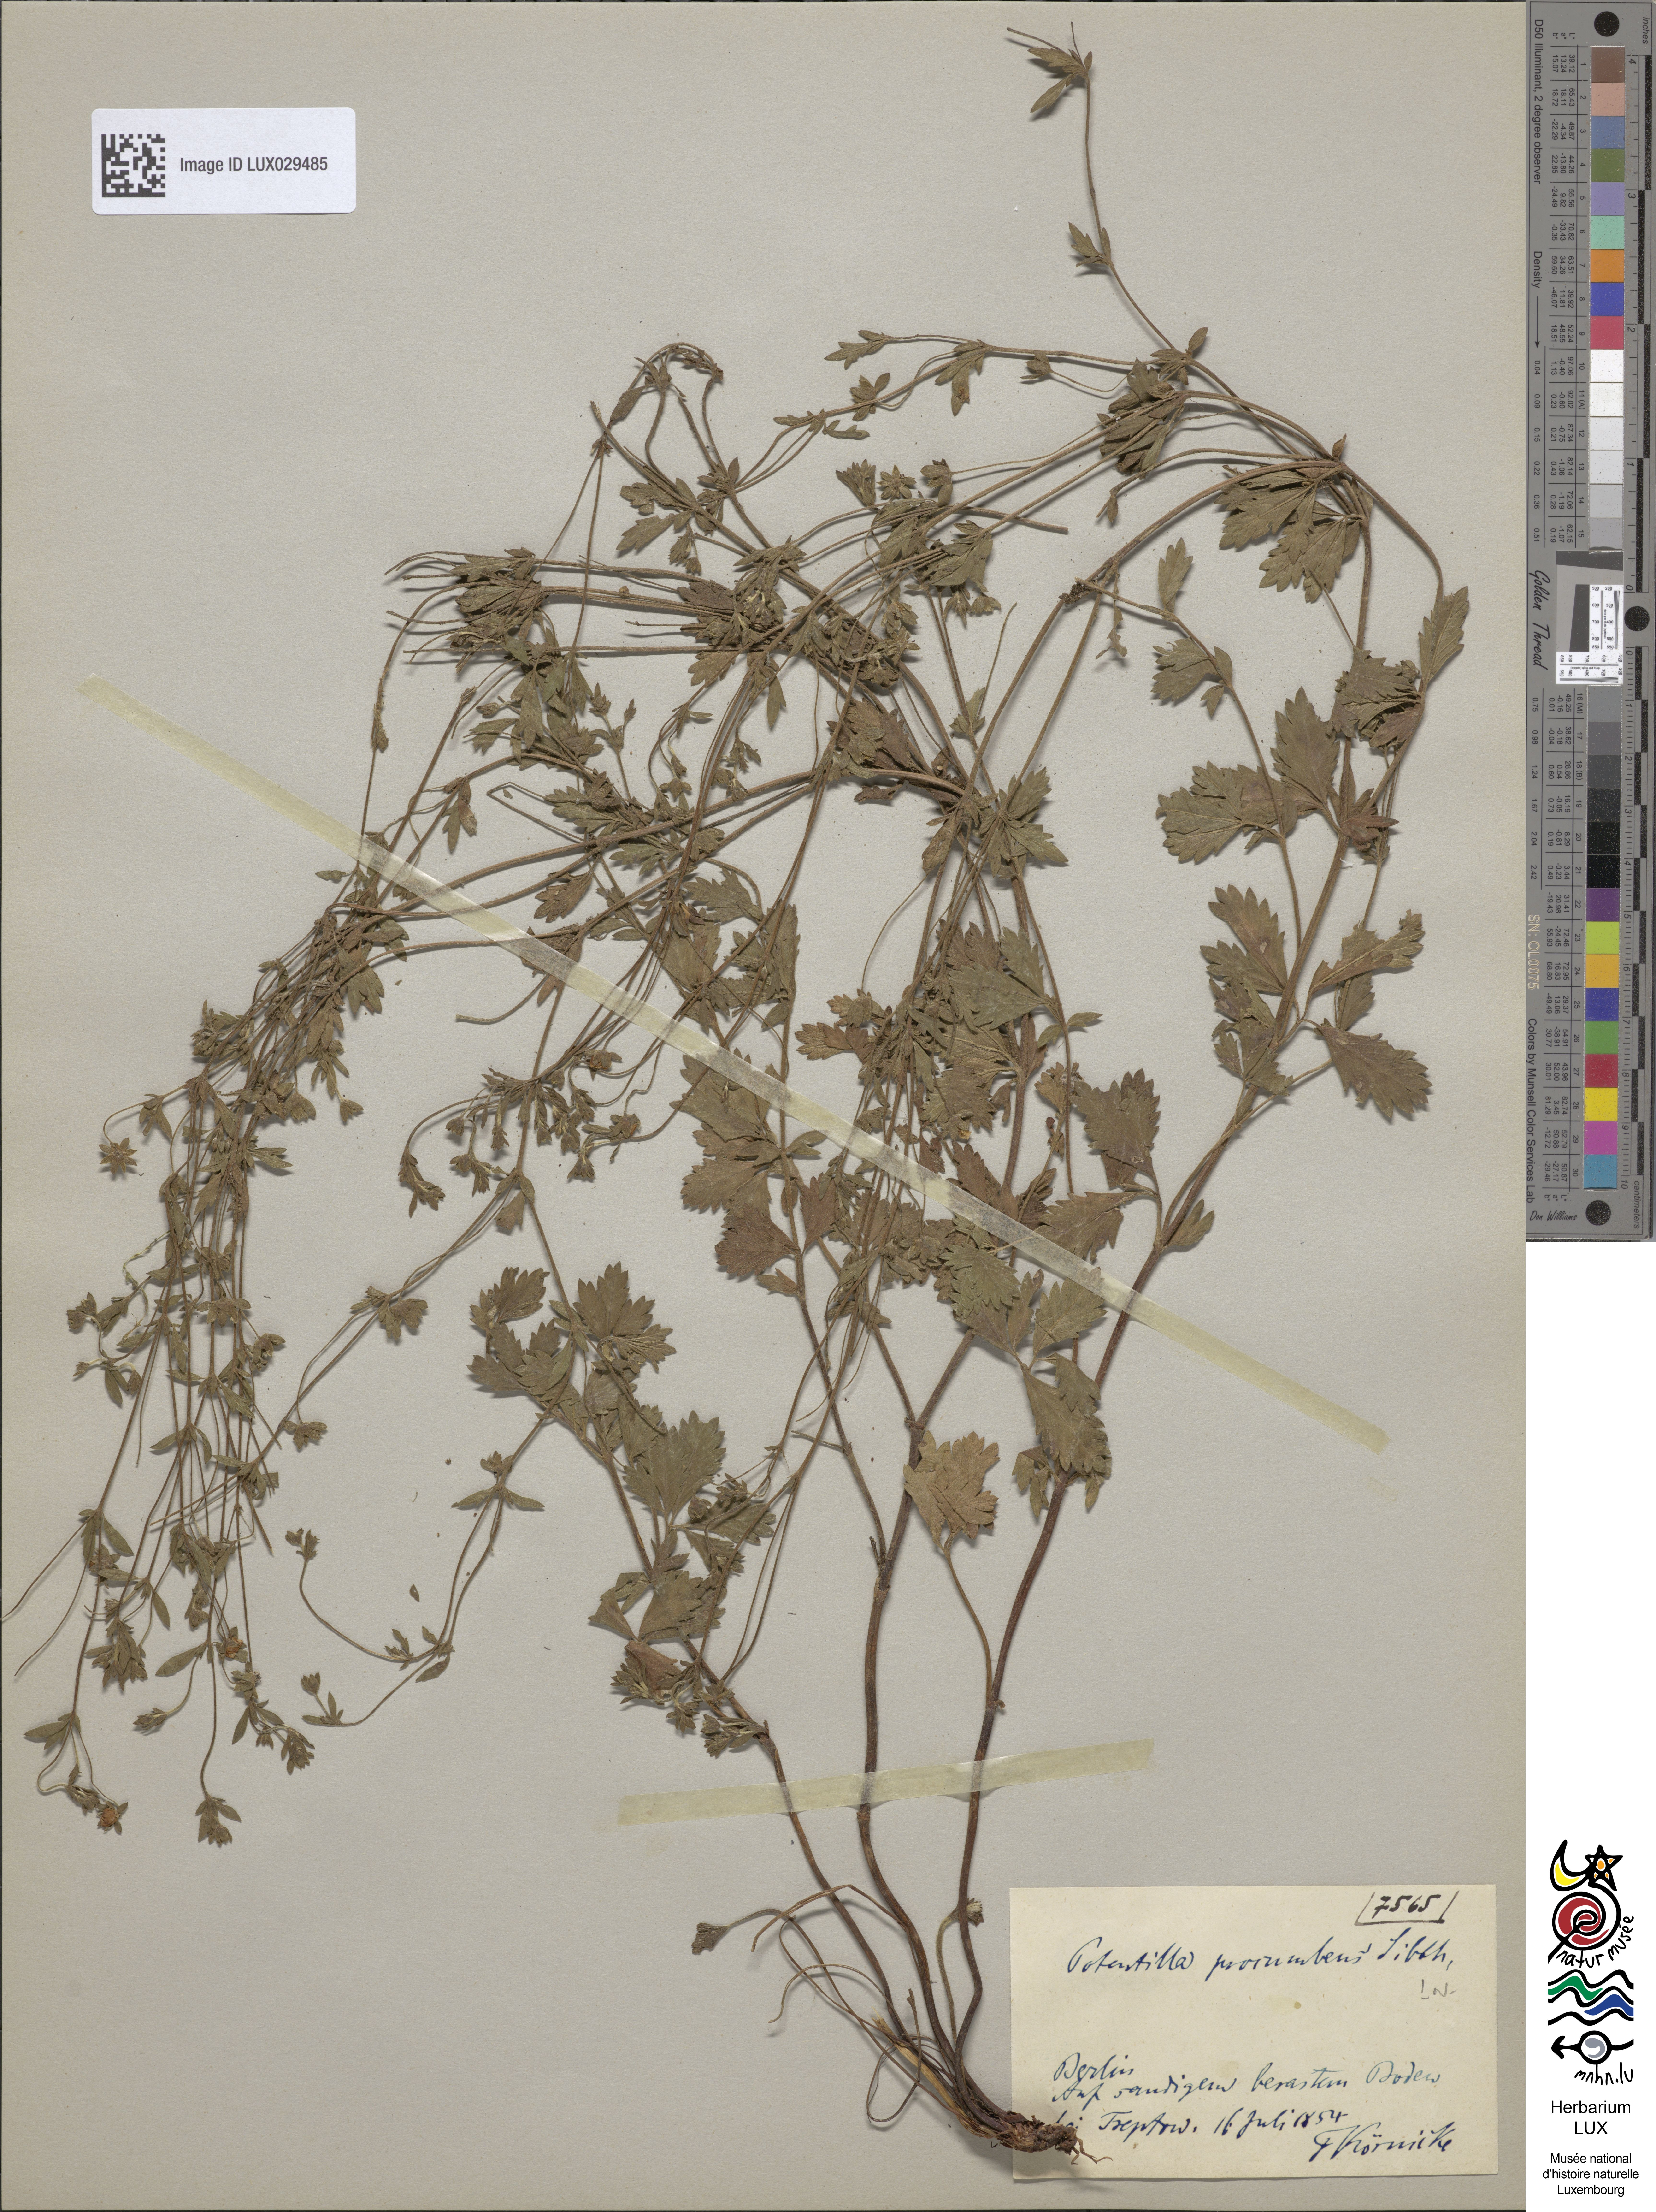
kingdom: Plantae
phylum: Tracheophyta
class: Magnoliopsida
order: Rosales
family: Rosaceae
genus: Potentilla
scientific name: Potentilla anglica
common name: Trailing tormentil
